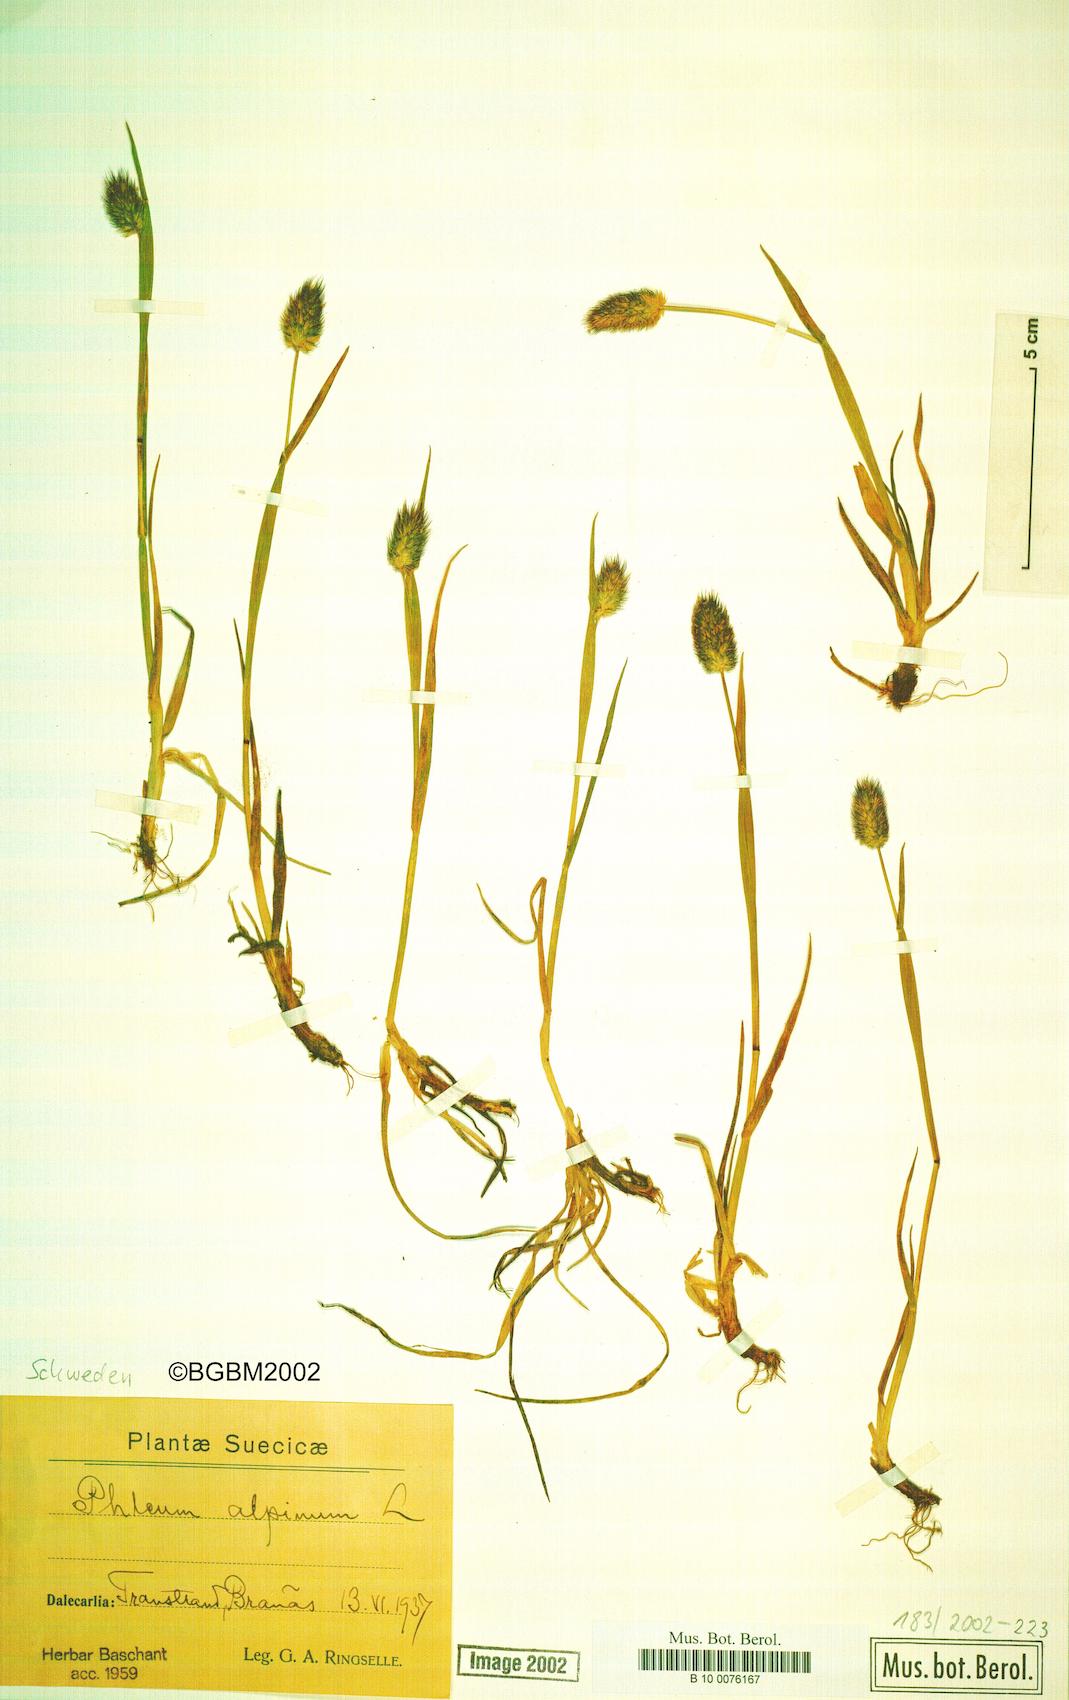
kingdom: Plantae
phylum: Tracheophyta
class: Liliopsida
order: Poales
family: Poaceae
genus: Phleum
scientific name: Phleum alpinum
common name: Alpine cat's-tail
